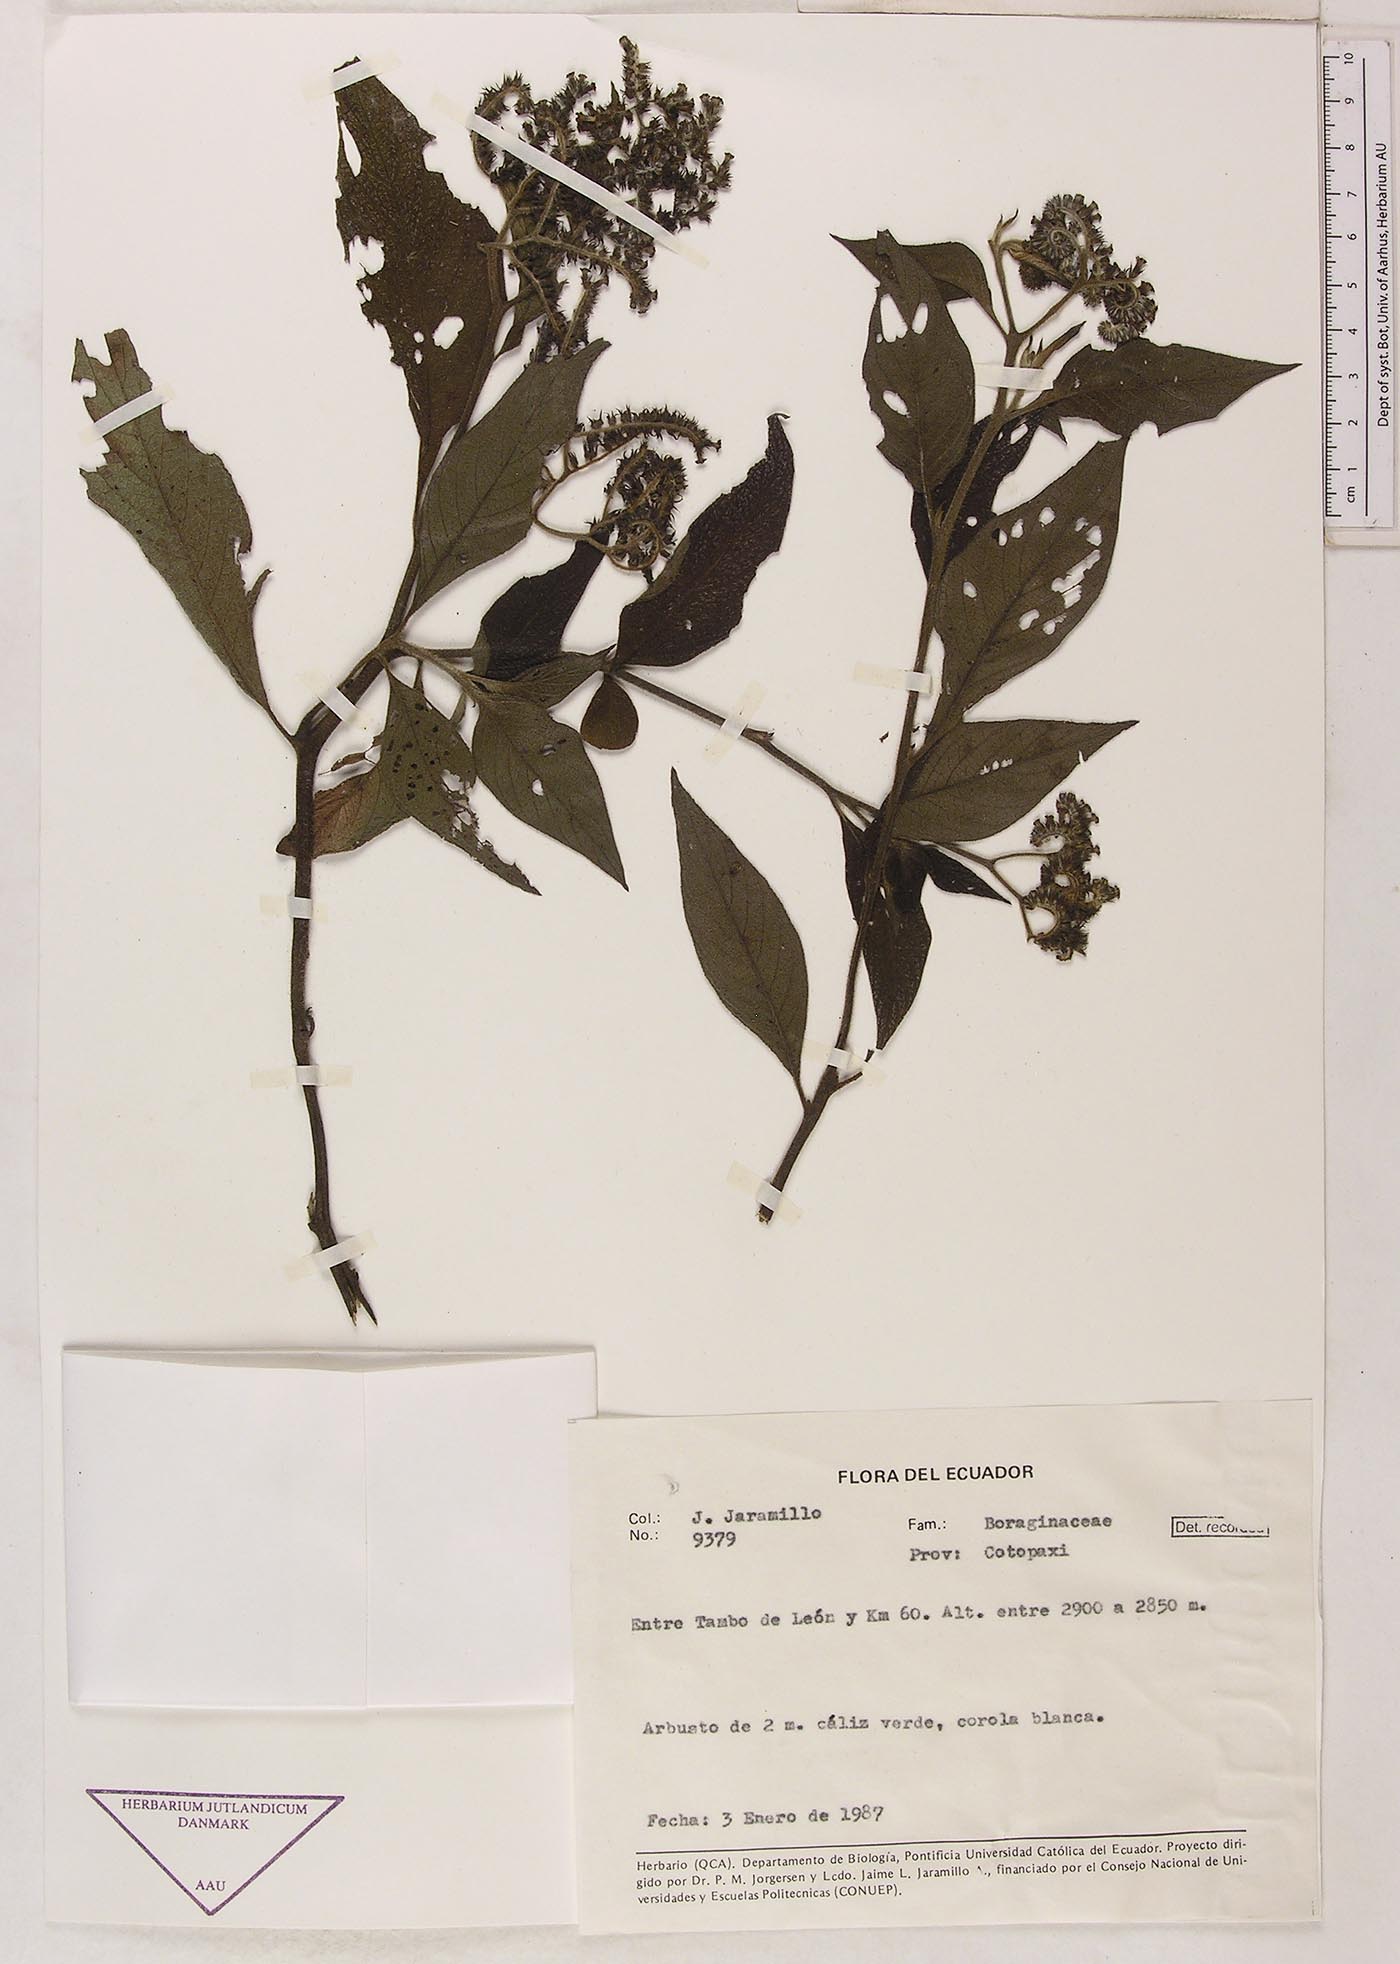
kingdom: Plantae
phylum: Tracheophyta
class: Magnoliopsida
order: Boraginales
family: Heliotropiaceae
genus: Heliotropium
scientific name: Heliotropium arborescens
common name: Cherry-pie
